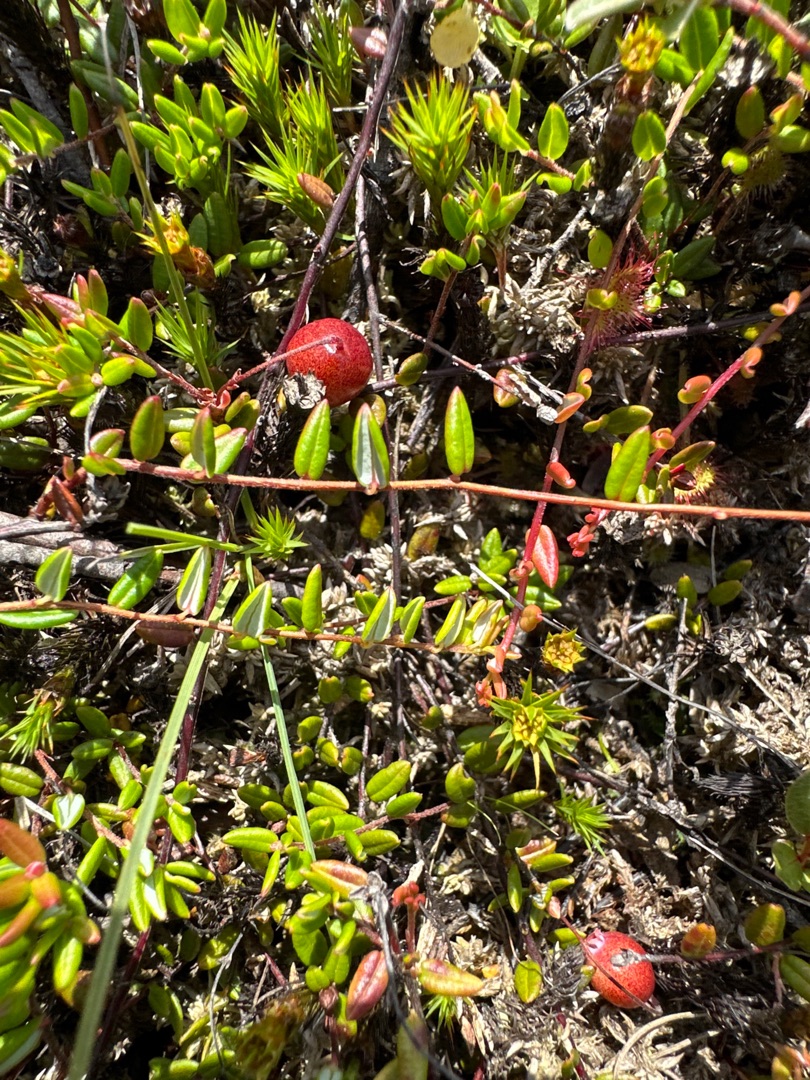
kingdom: Plantae
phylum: Tracheophyta
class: Magnoliopsida
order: Ericales
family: Ericaceae
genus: Vaccinium
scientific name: Vaccinium oxycoccos
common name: Tranebær
